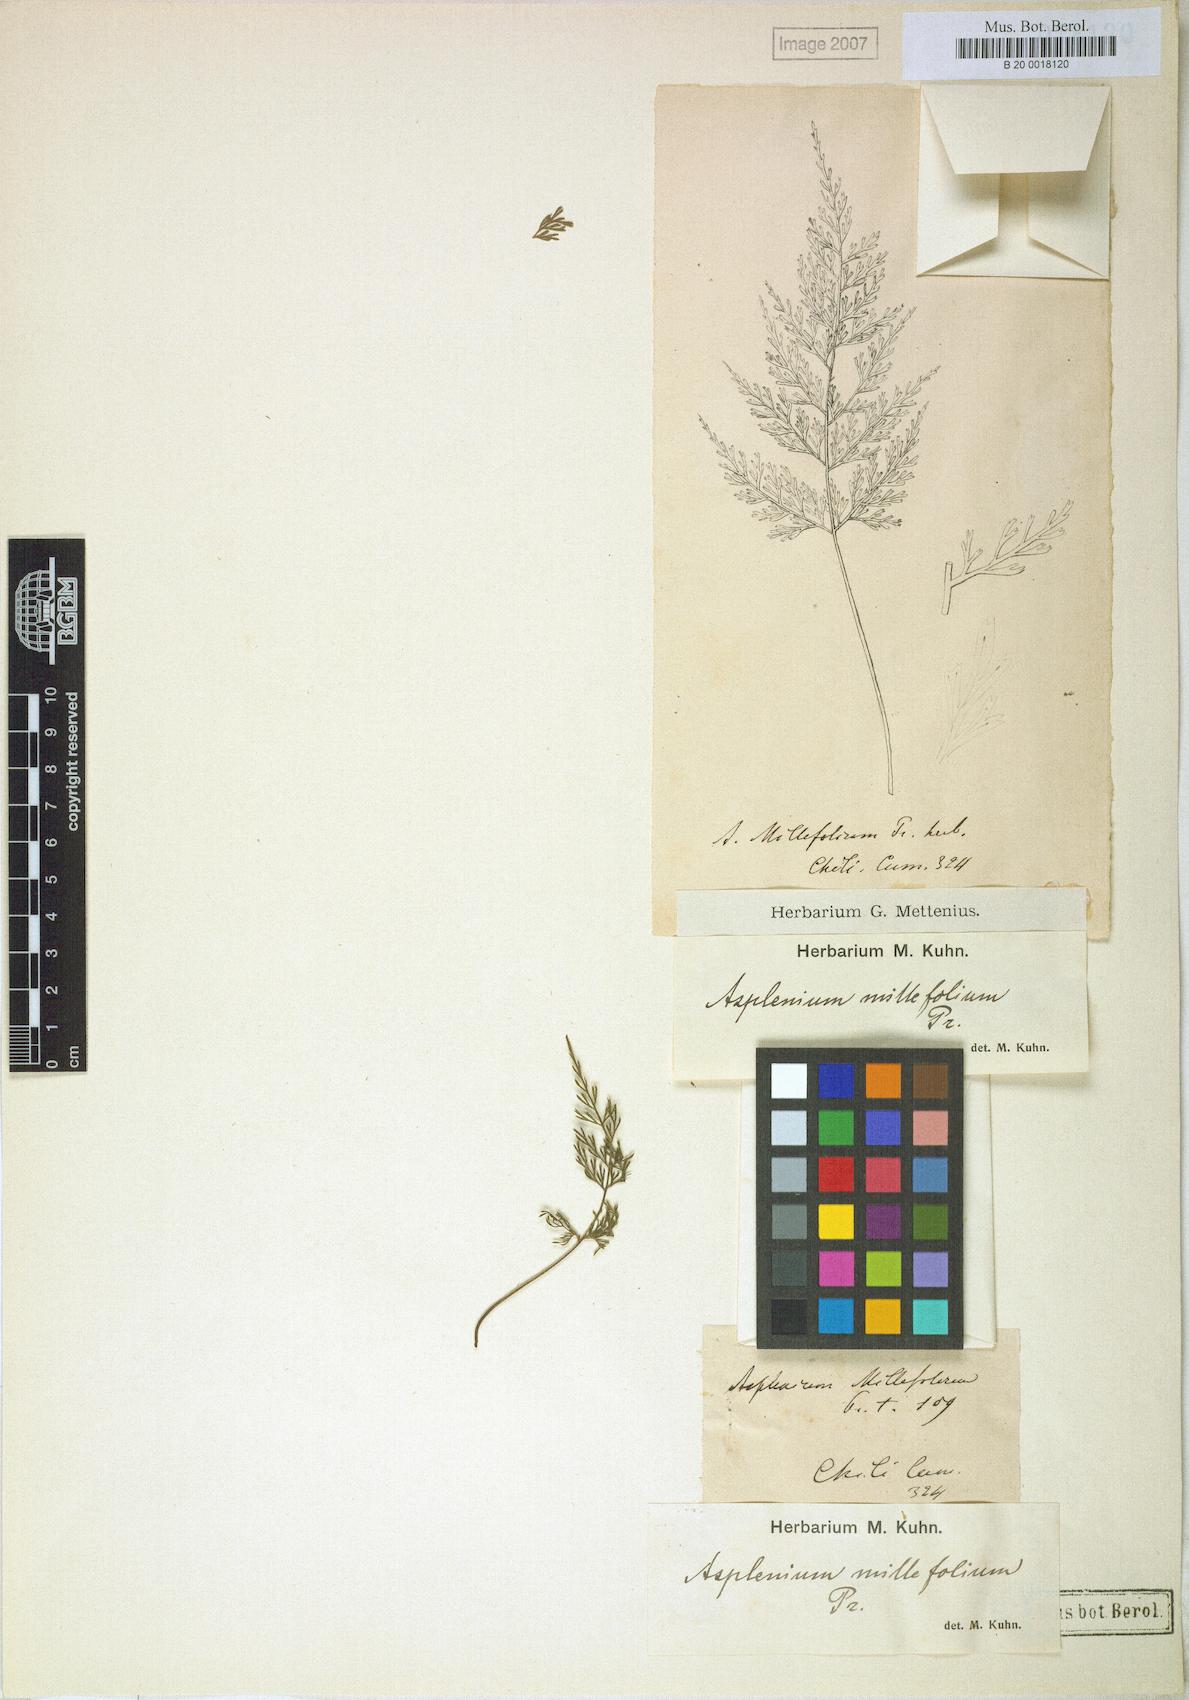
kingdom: Plantae
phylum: Tracheophyta
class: Polypodiopsida
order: Polypodiales
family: Aspleniaceae
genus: Asplenium
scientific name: Asplenium millefolium
